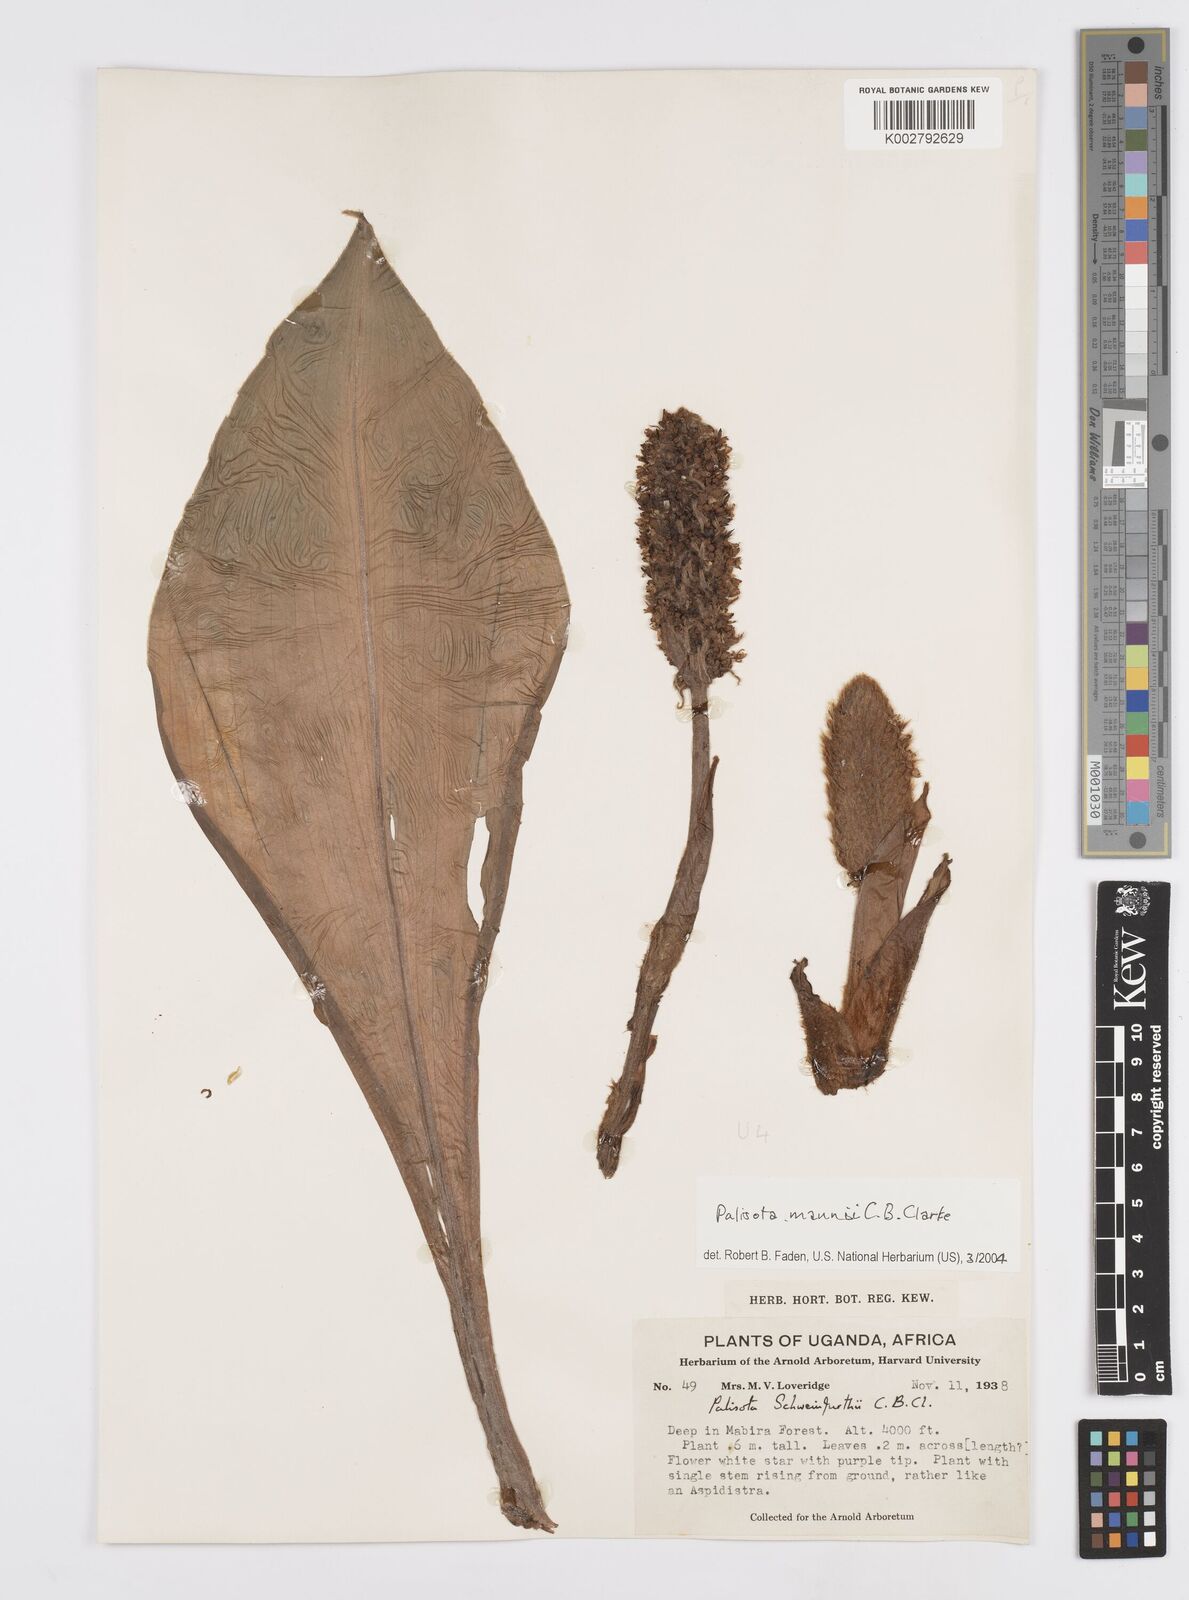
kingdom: Plantae
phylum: Tracheophyta
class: Liliopsida
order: Commelinales
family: Commelinaceae
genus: Palisota
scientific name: Palisota mannii
